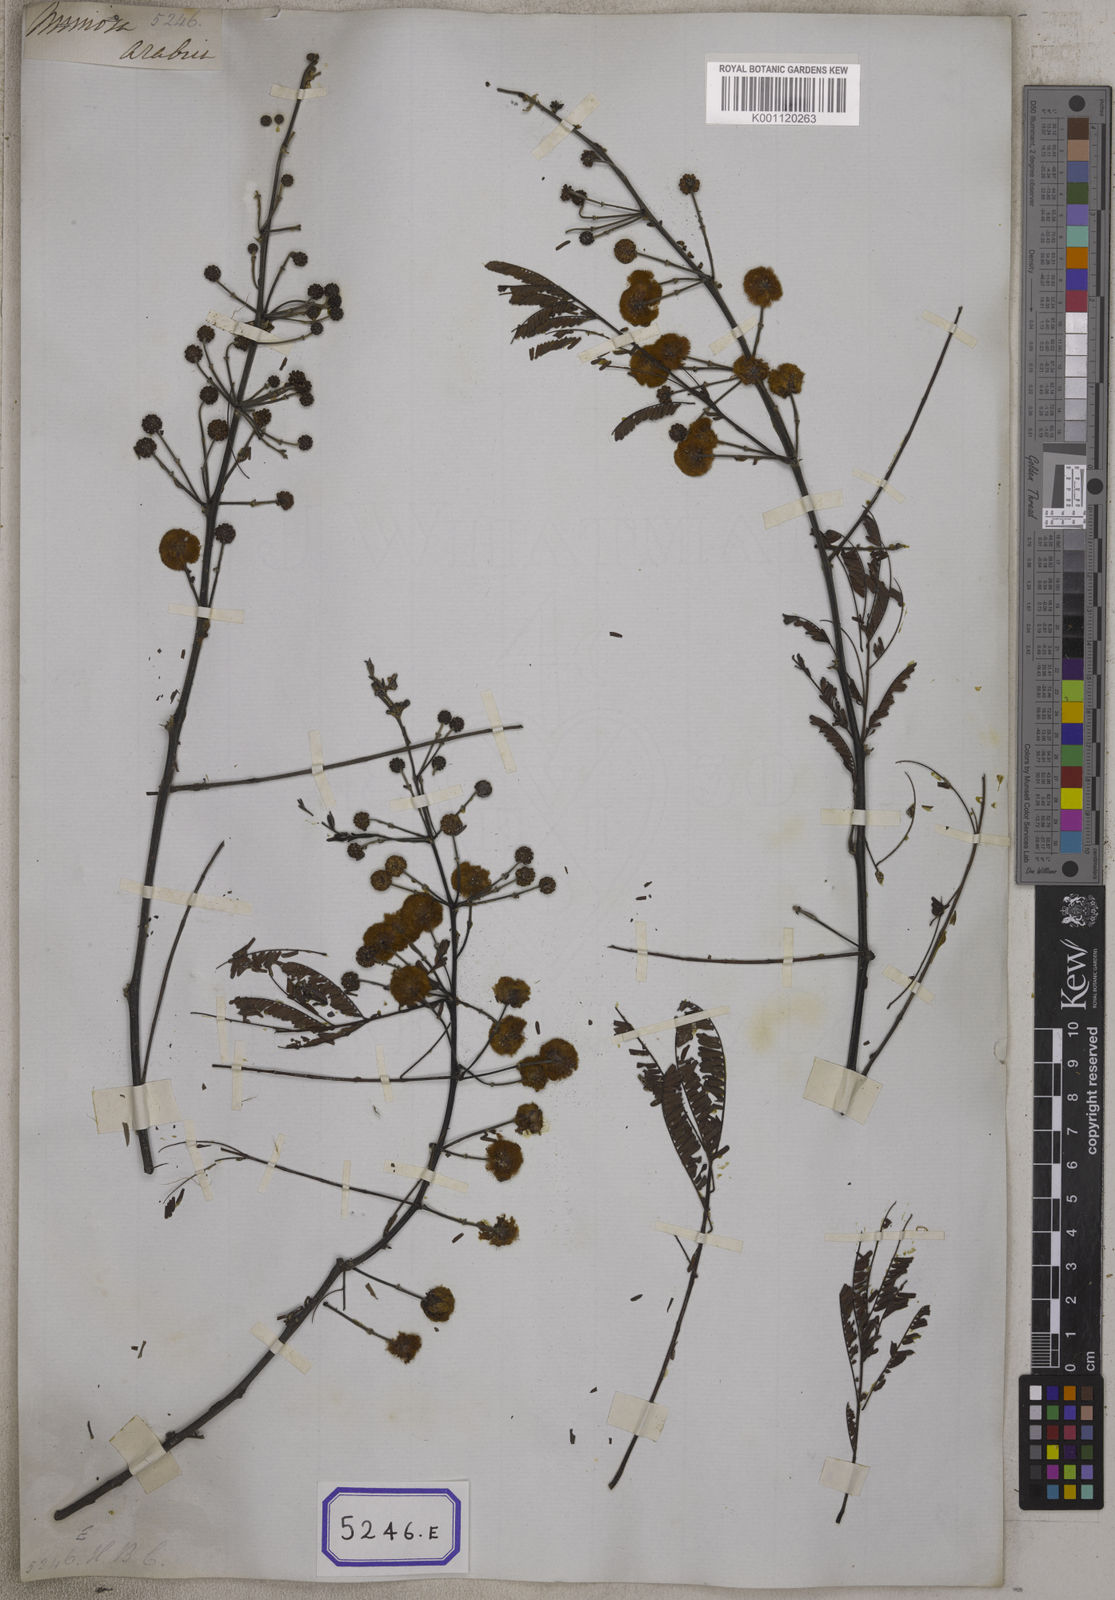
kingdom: Plantae
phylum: Tracheophyta
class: Magnoliopsida
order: Fabales
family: Fabaceae
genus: Vachellia
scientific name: Vachellia nilotica
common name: Arabic gumtree
